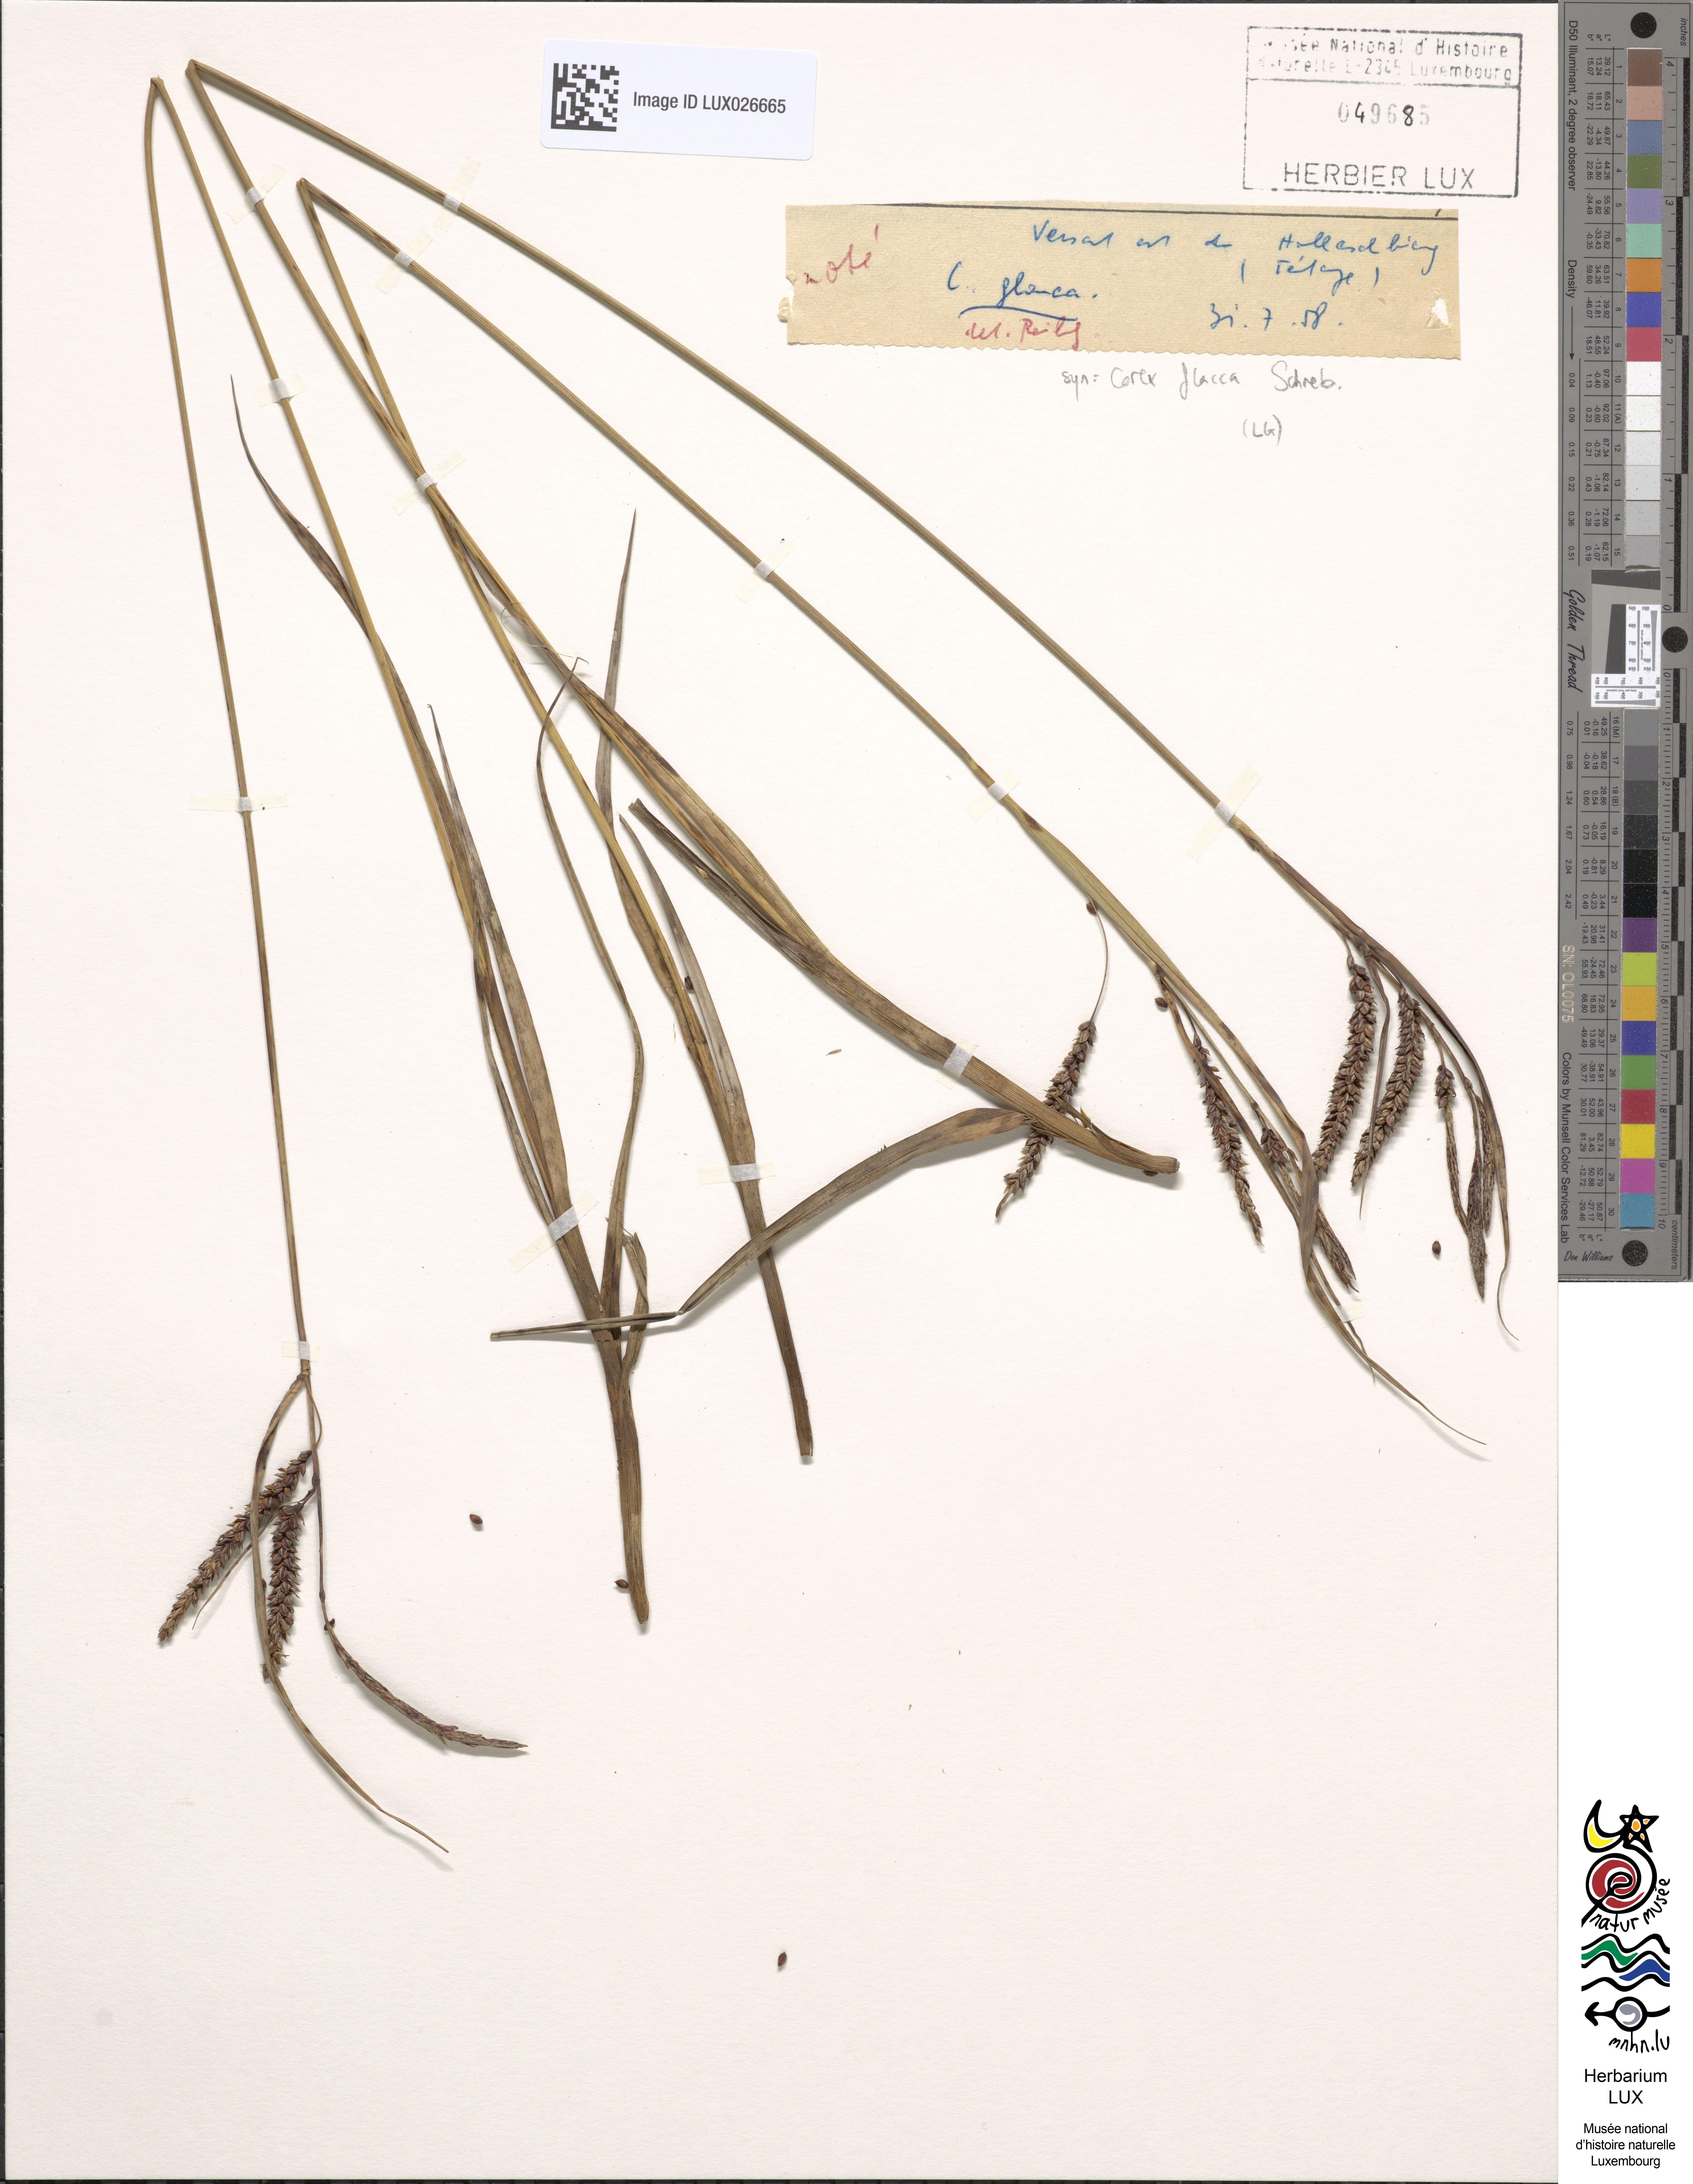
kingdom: Plantae
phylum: Tracheophyta
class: Liliopsida
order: Poales
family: Cyperaceae
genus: Carex
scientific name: Carex flacca
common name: Glaucous sedge
